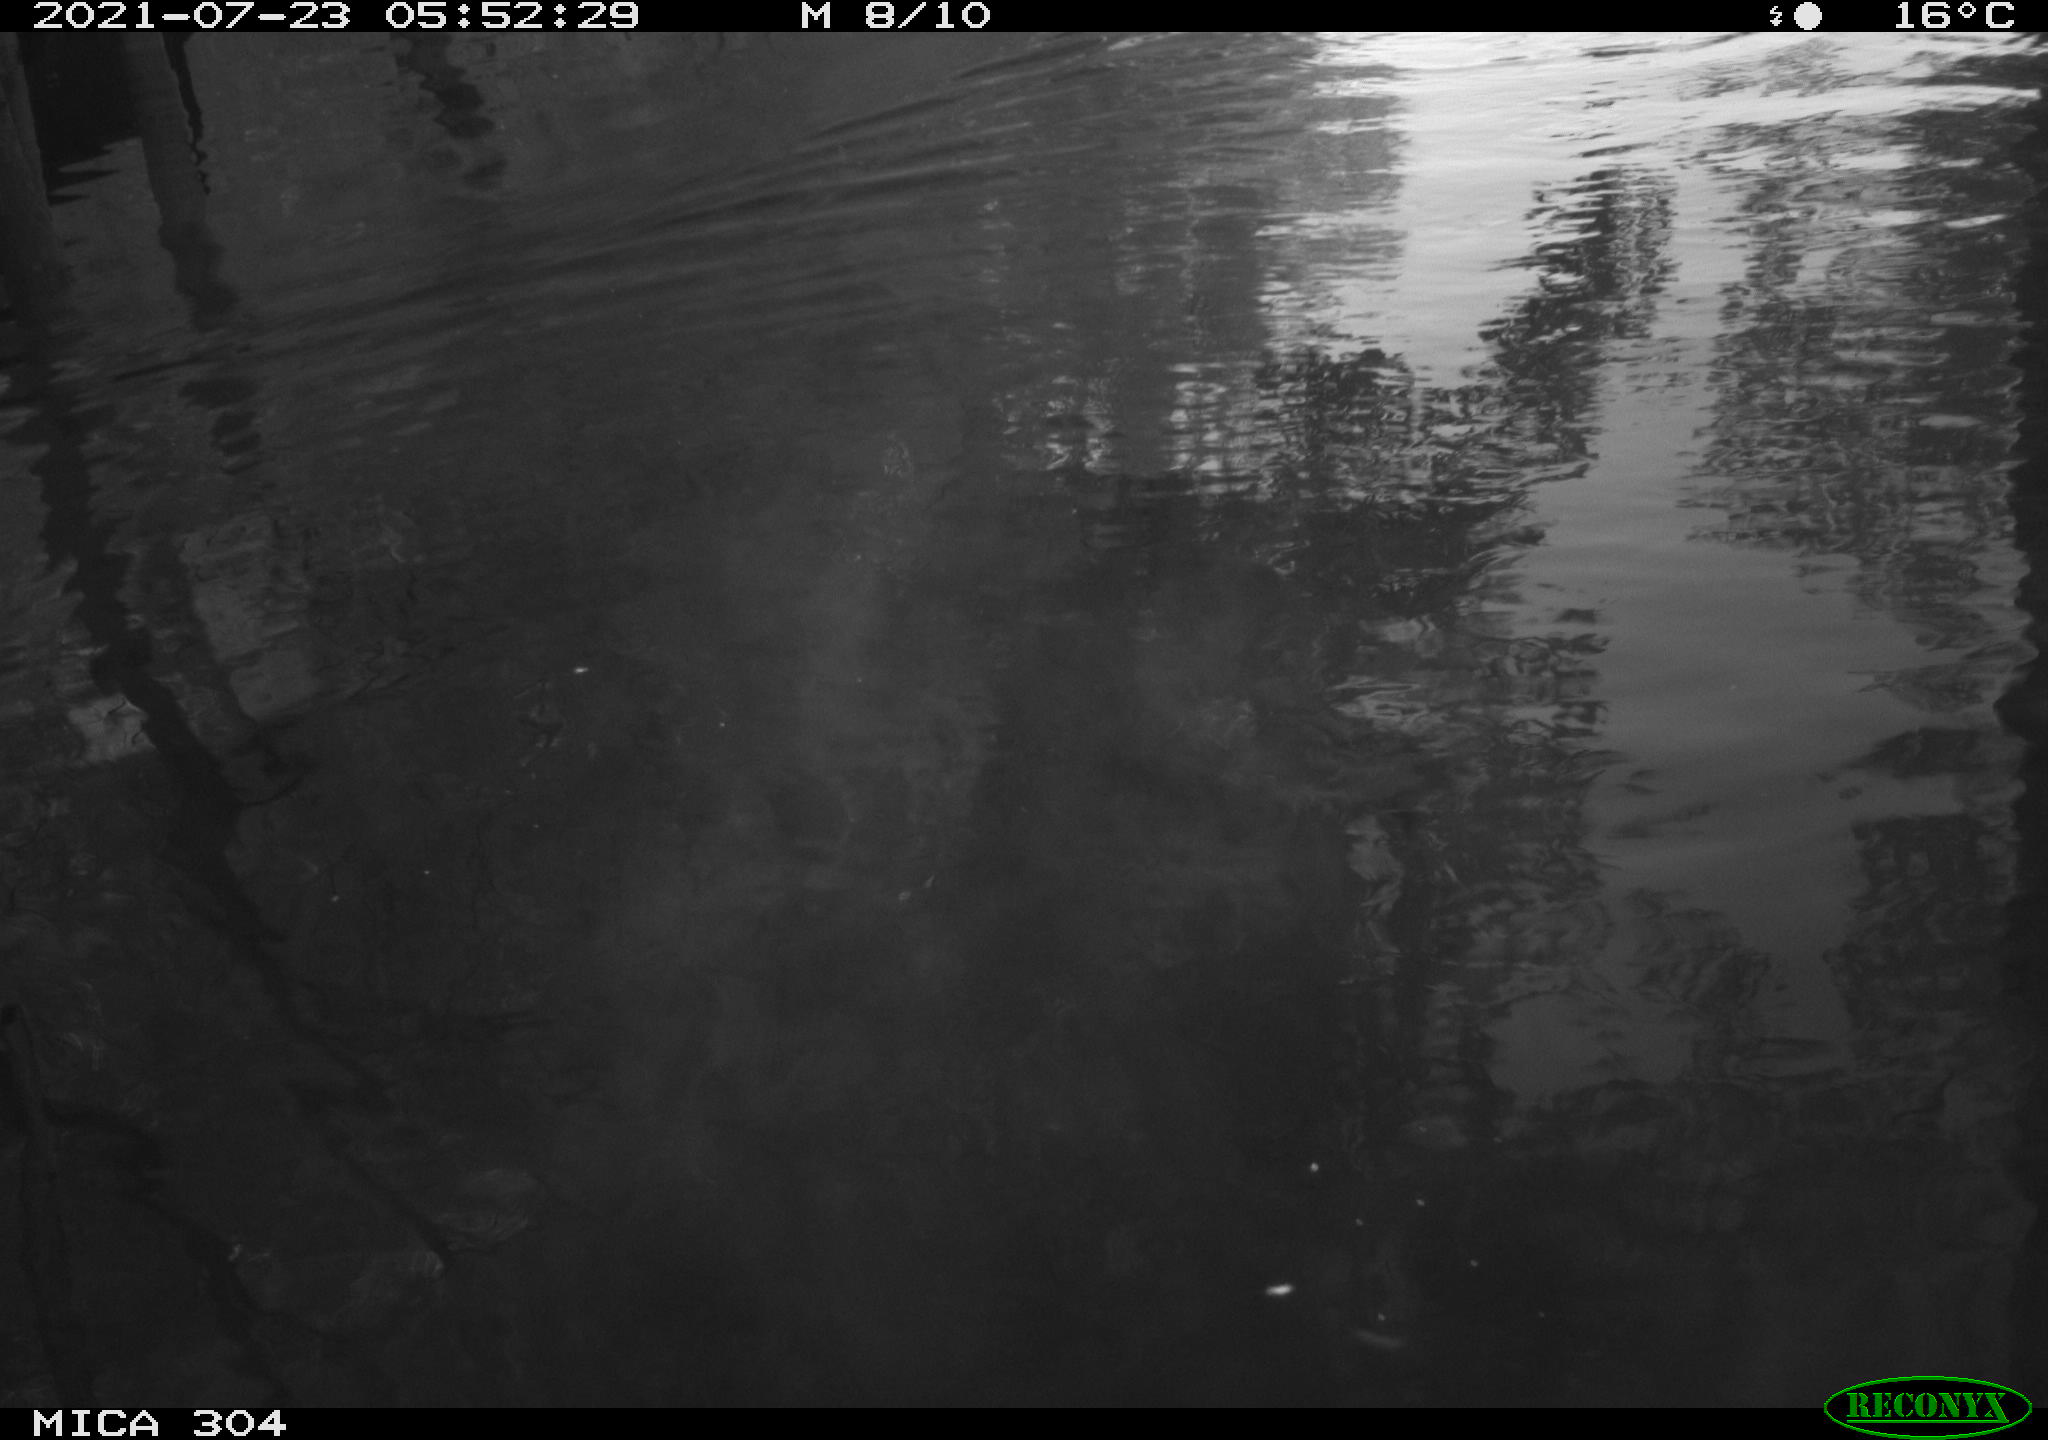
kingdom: Animalia
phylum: Chordata
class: Aves
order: Anseriformes
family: Anatidae
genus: Anas
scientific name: Anas platyrhynchos
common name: Mallard
